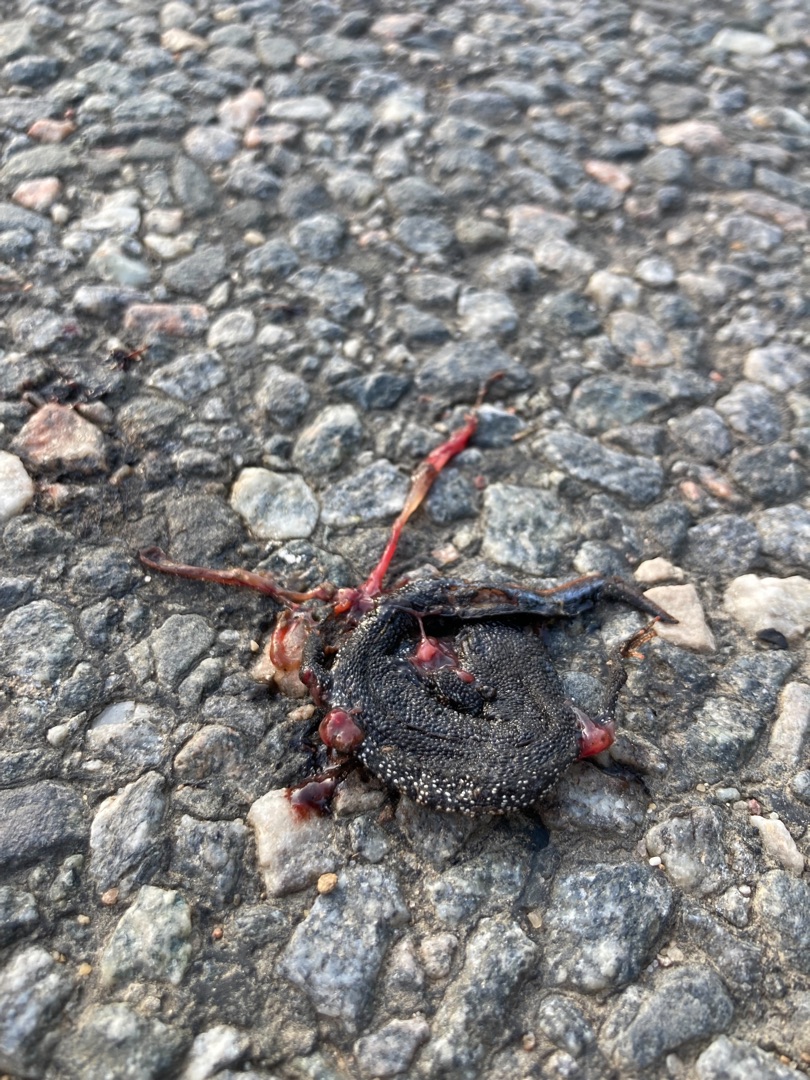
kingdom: Animalia
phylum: Chordata
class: Amphibia
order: Caudata
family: Salamandridae
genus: Triturus
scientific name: Triturus cristatus
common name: Stor vandsalamander
